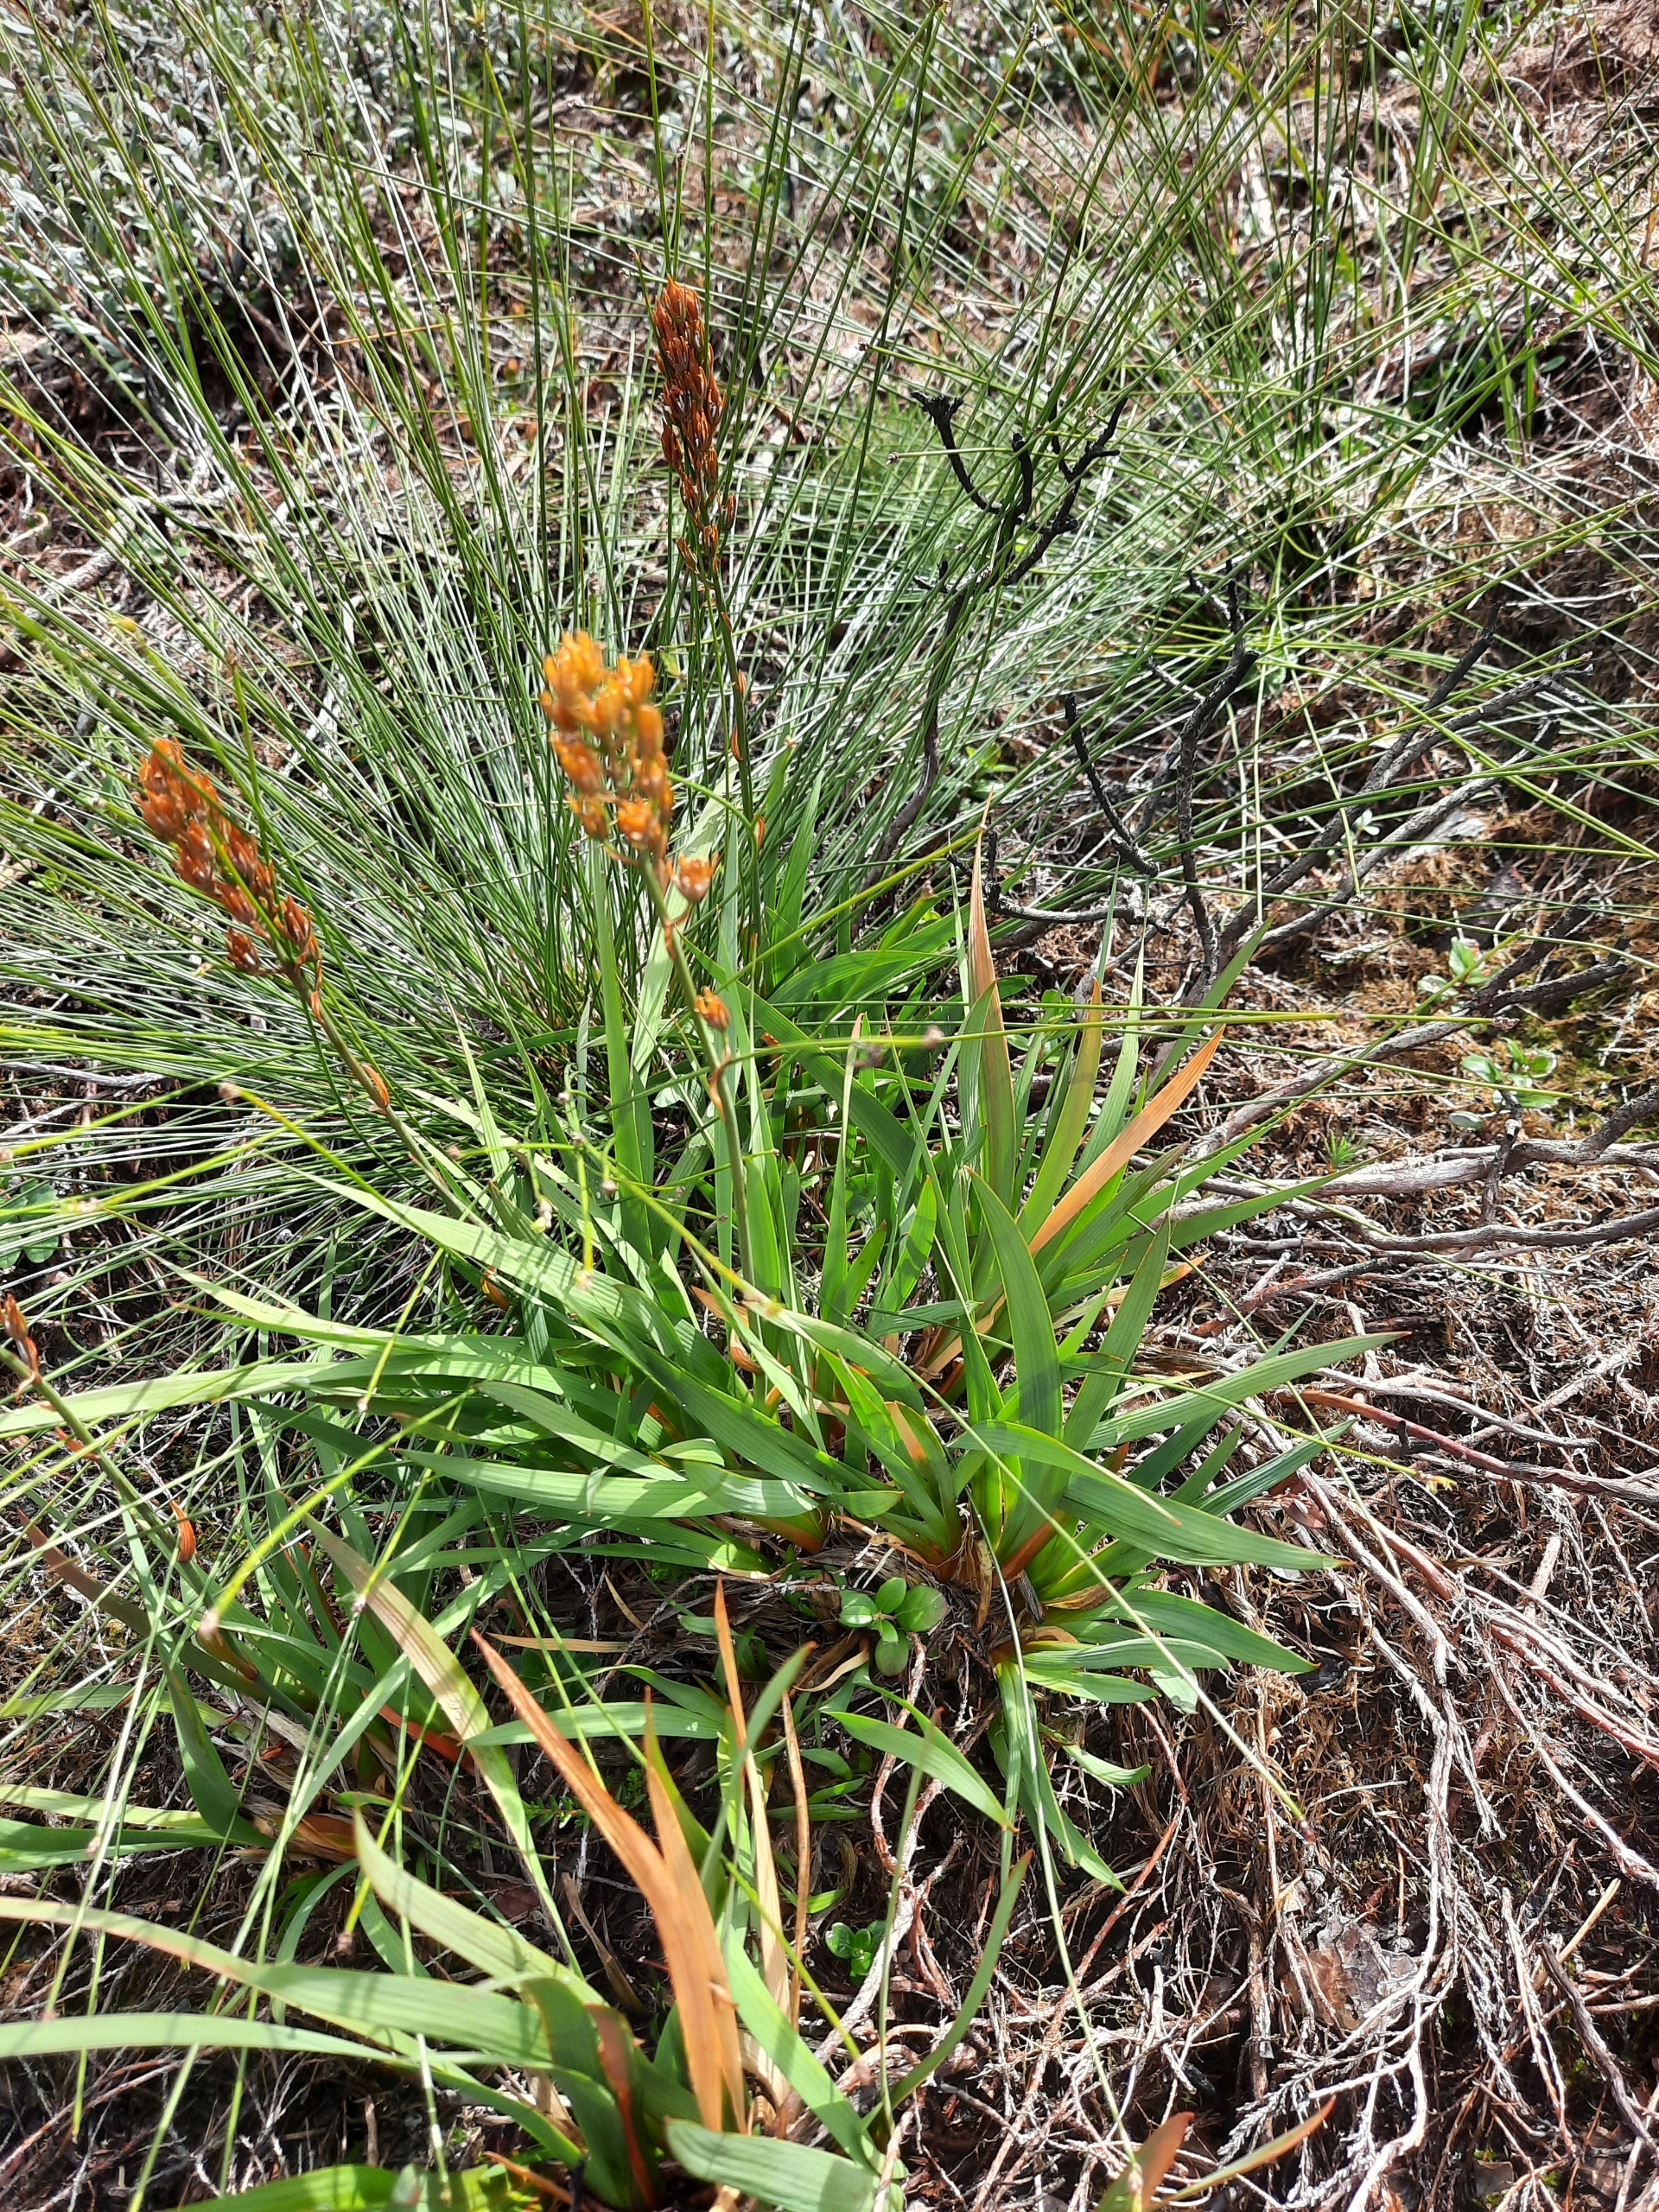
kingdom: Plantae
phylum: Tracheophyta
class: Liliopsida
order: Dioscoreales
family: Nartheciaceae
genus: Narthecium
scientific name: Narthecium ossifragum
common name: Benbræk
